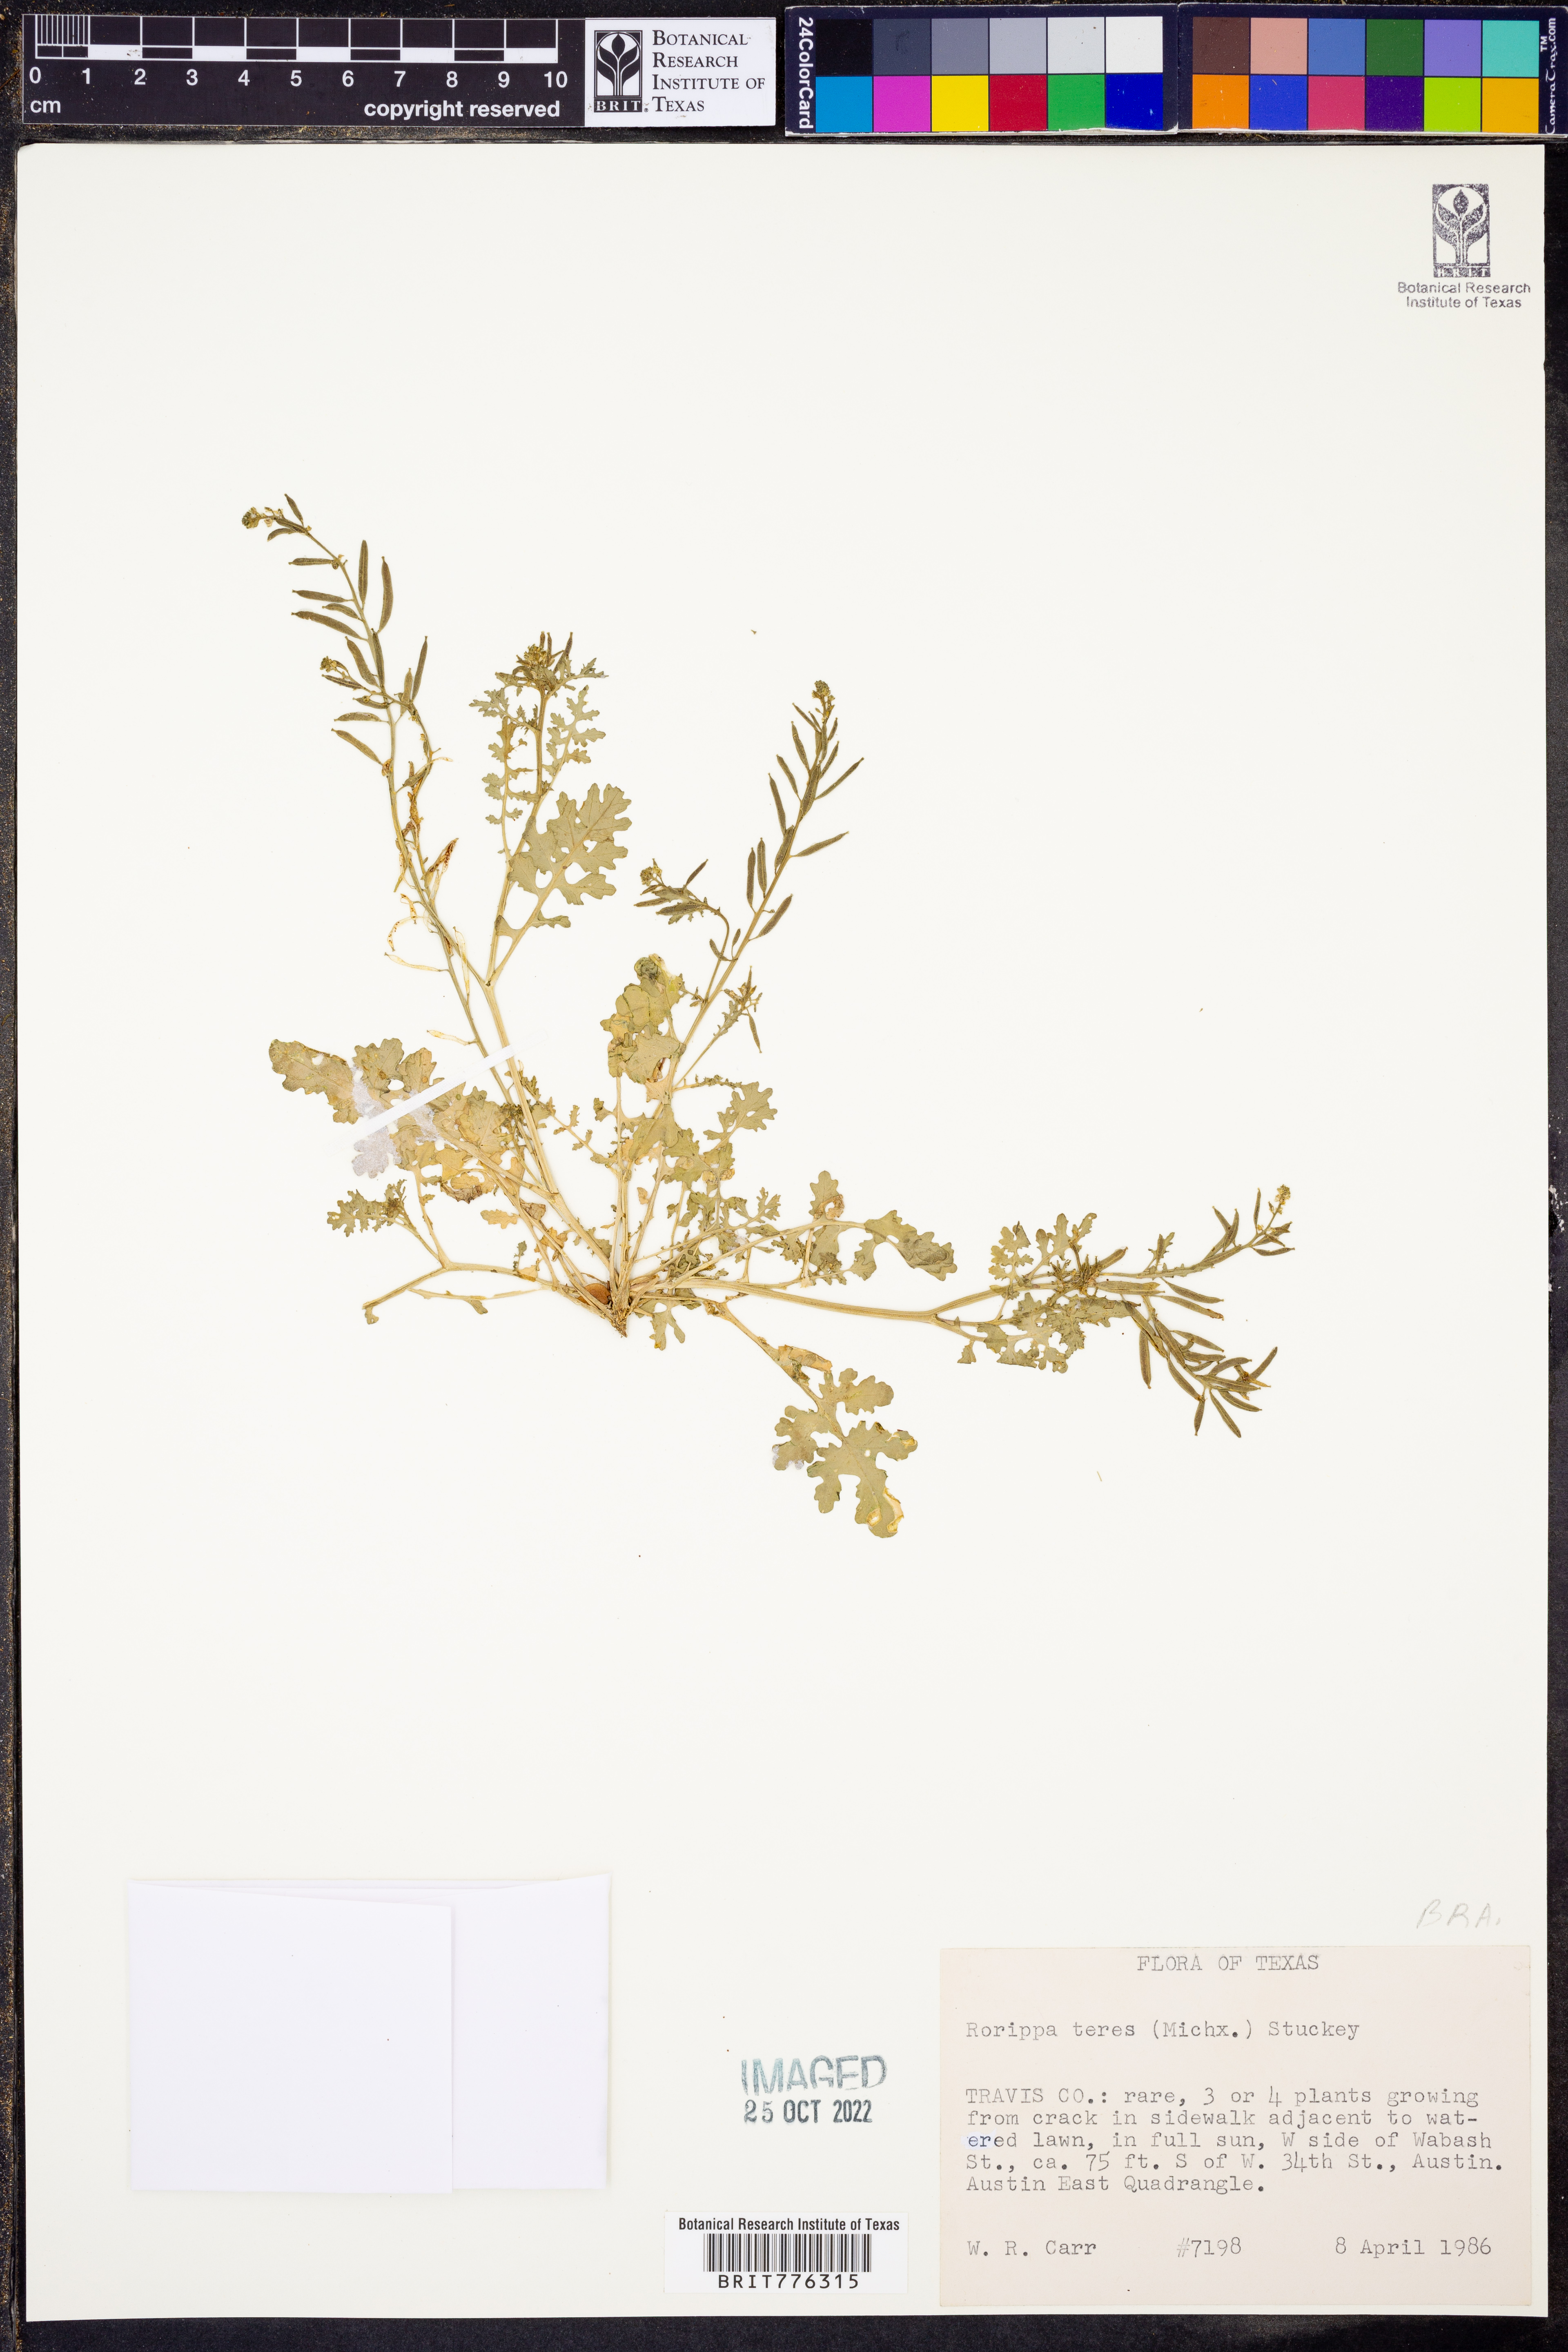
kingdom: Plantae
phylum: Tracheophyta
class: Magnoliopsida
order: Brassicales
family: Brassicaceae
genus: Rorippa
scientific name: Rorippa teres
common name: Southern marsh yellowcress
